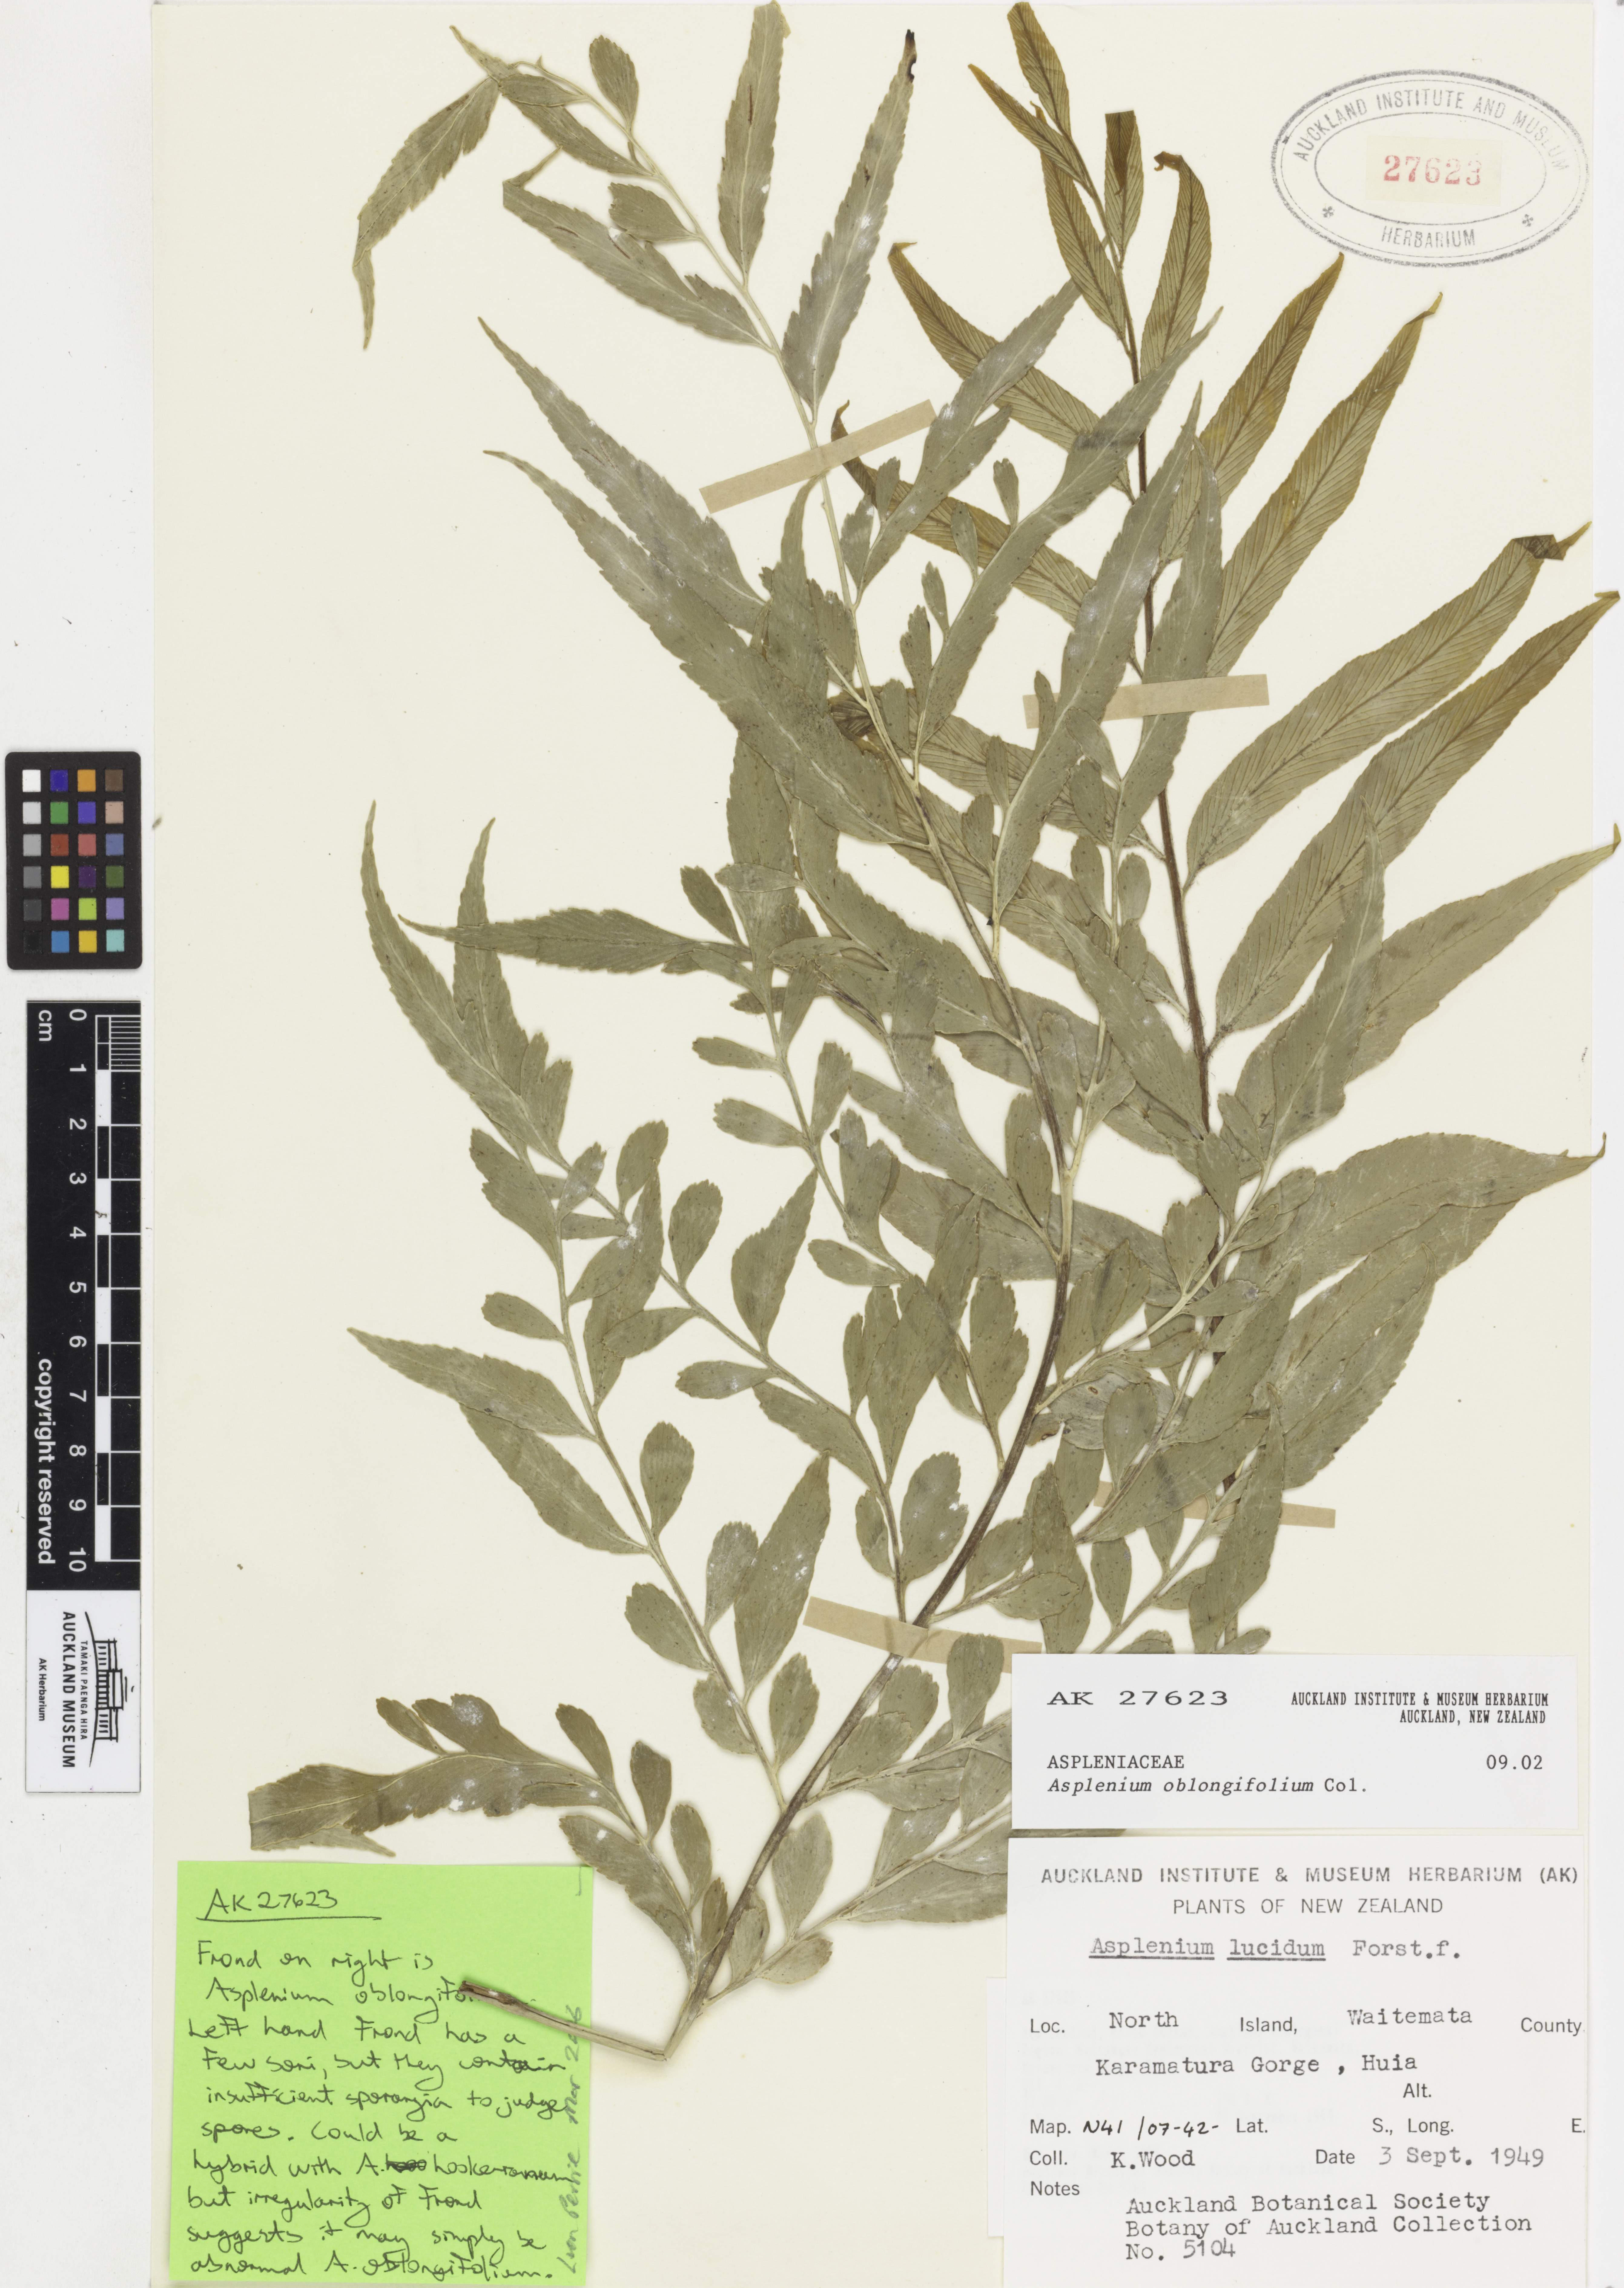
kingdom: Plantae
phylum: Tracheophyta
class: Polypodiopsida
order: Polypodiales
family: Aspleniaceae
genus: Asplenium
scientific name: Asplenium oblongifolium
